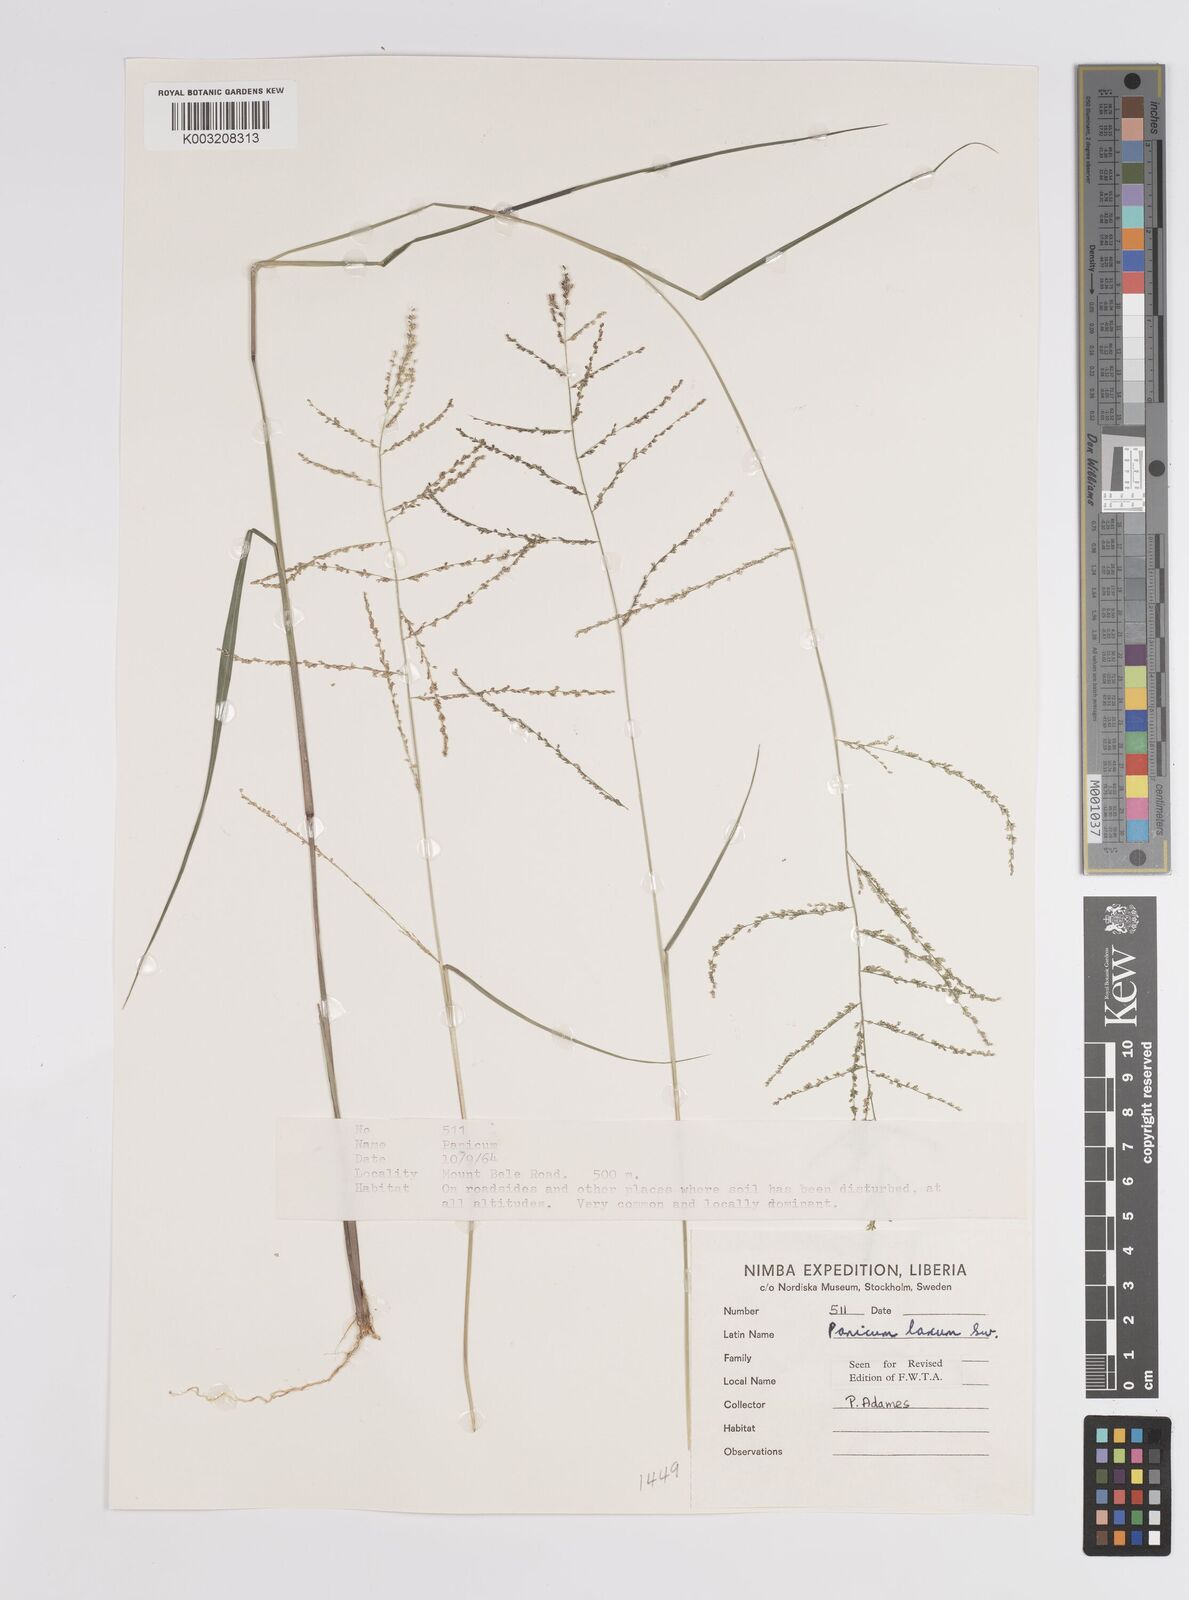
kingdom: Plantae
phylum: Tracheophyta
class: Liliopsida
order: Poales
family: Poaceae
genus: Steinchisma
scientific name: Steinchisma laxum
